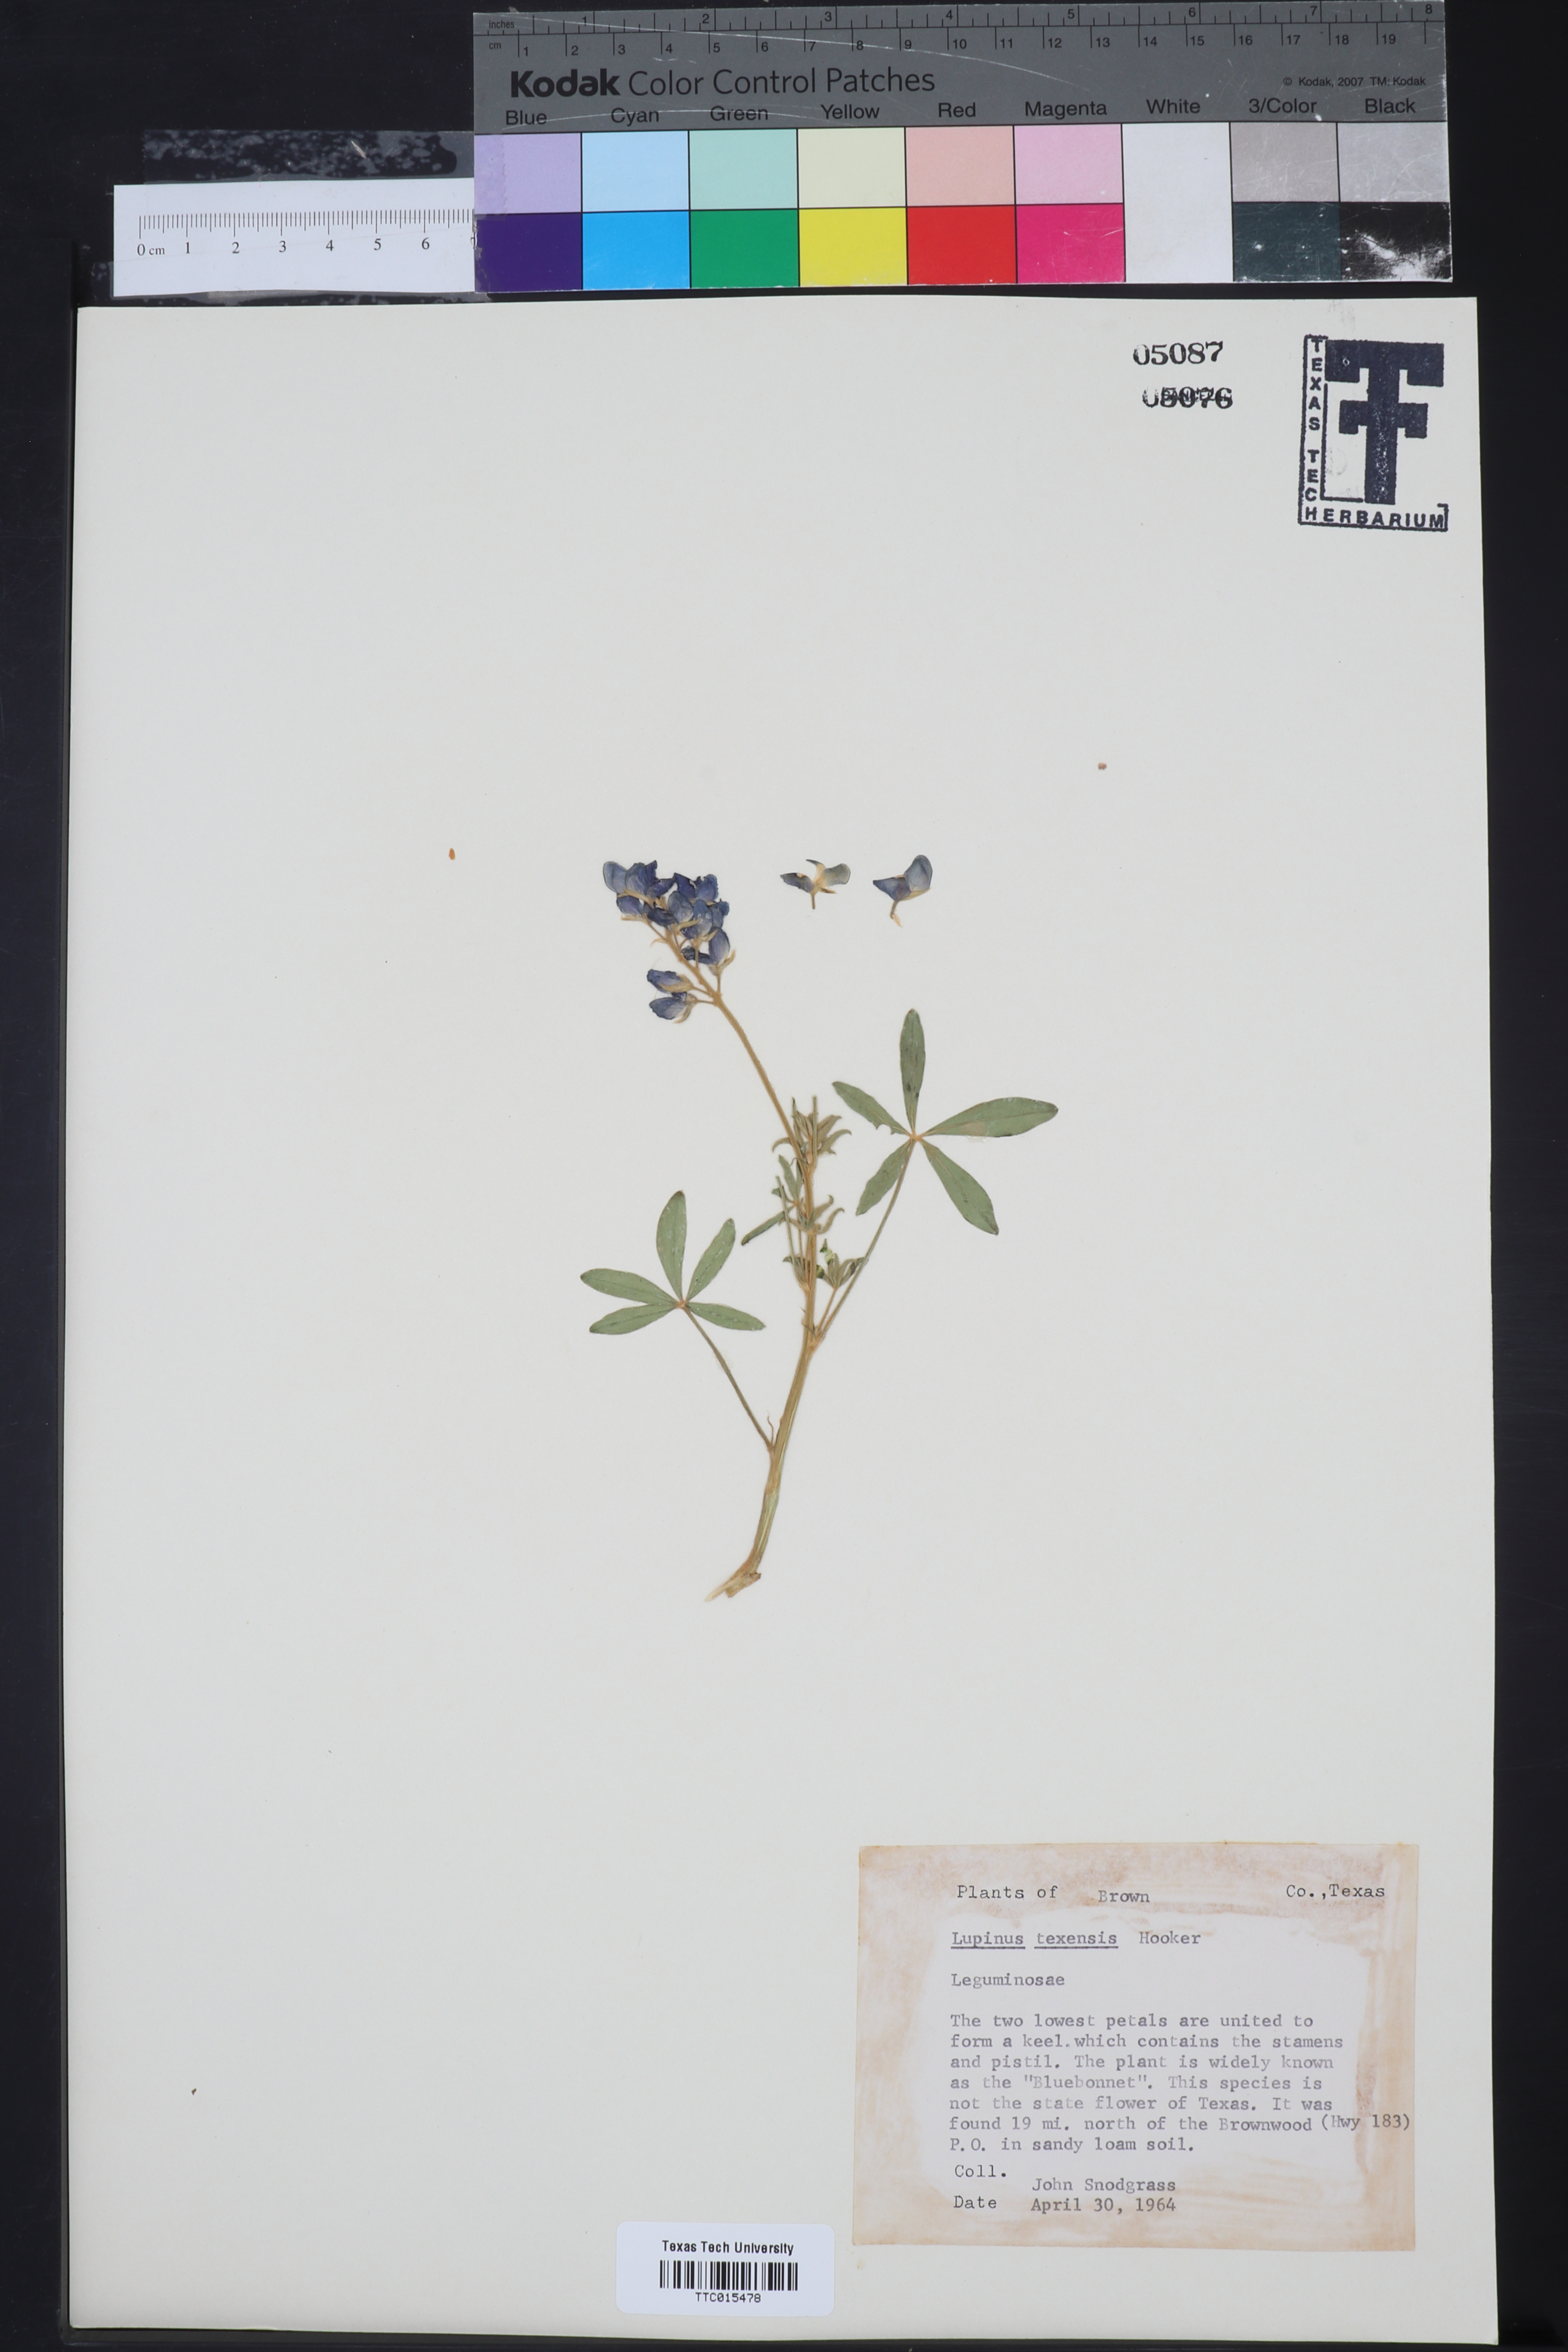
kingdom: Plantae
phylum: Tracheophyta
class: Magnoliopsida
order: Fabales
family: Fabaceae
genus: Lupinus
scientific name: Lupinus texensis
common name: Texas bluebonnet
